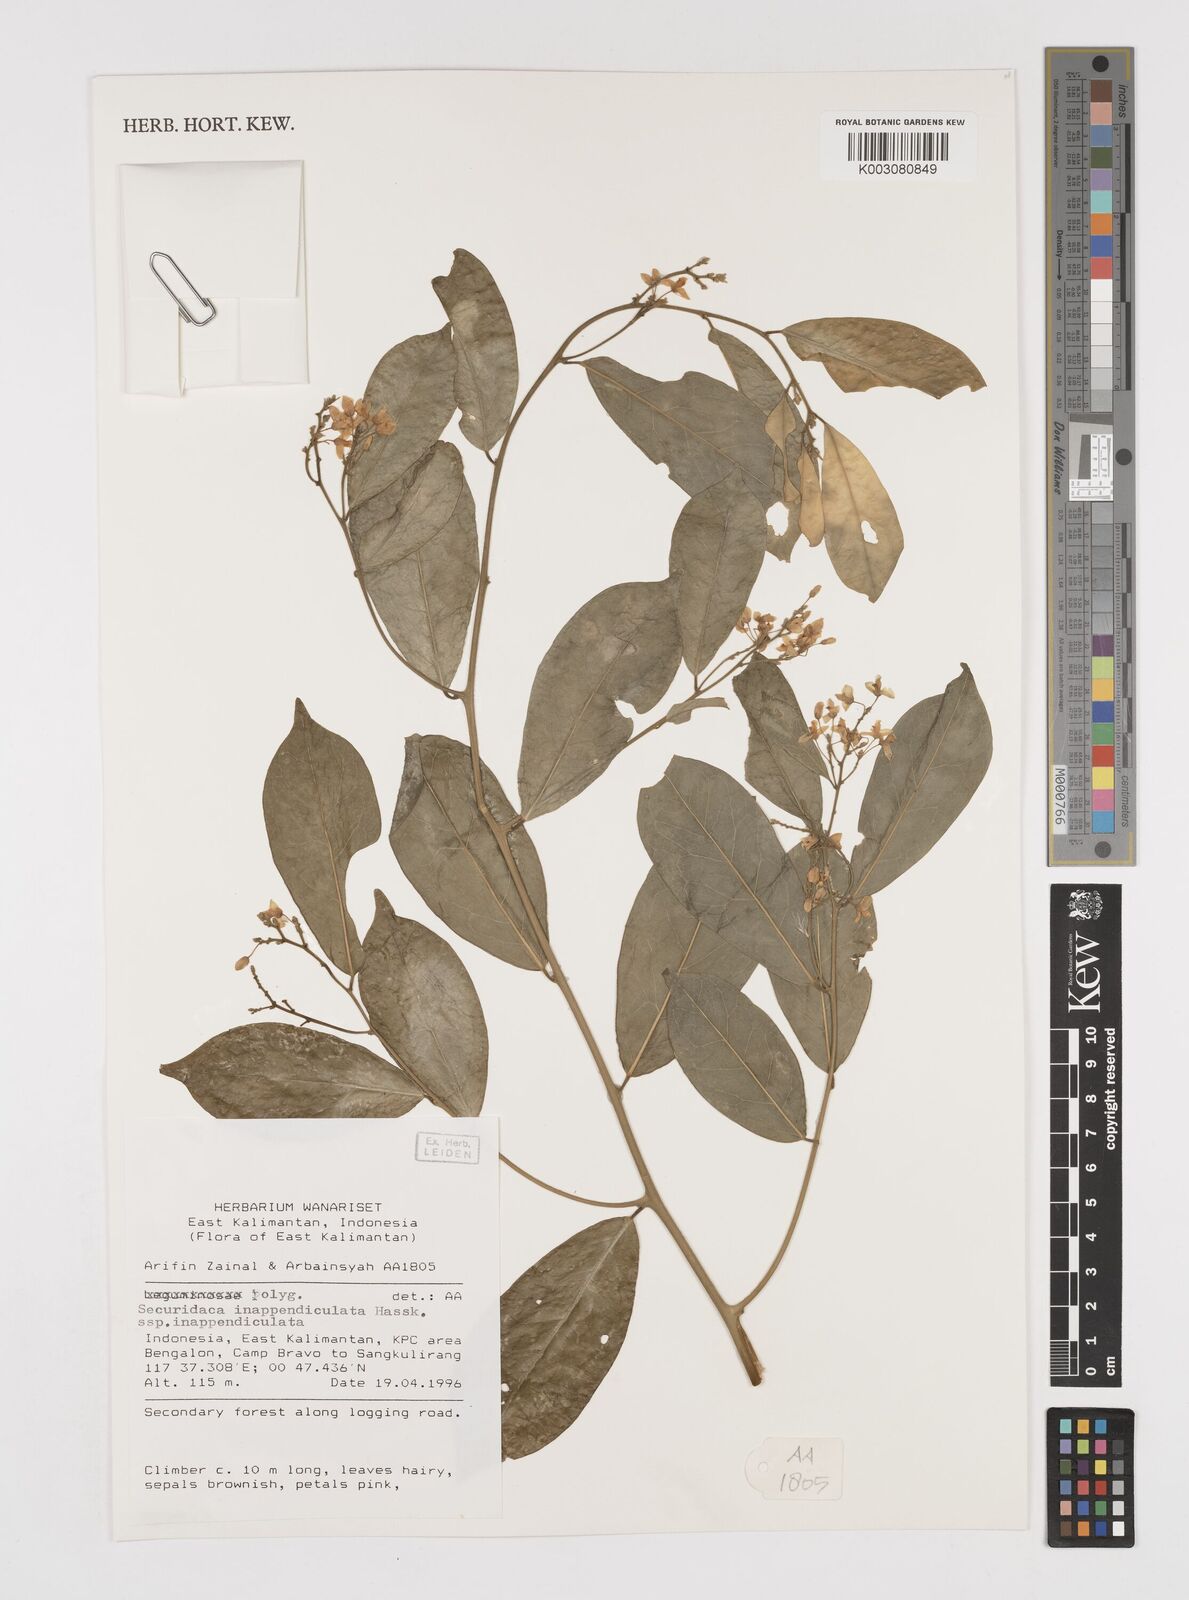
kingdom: Plantae
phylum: Tracheophyta
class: Magnoliopsida
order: Fabales
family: Polygalaceae
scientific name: Polygalaceae
